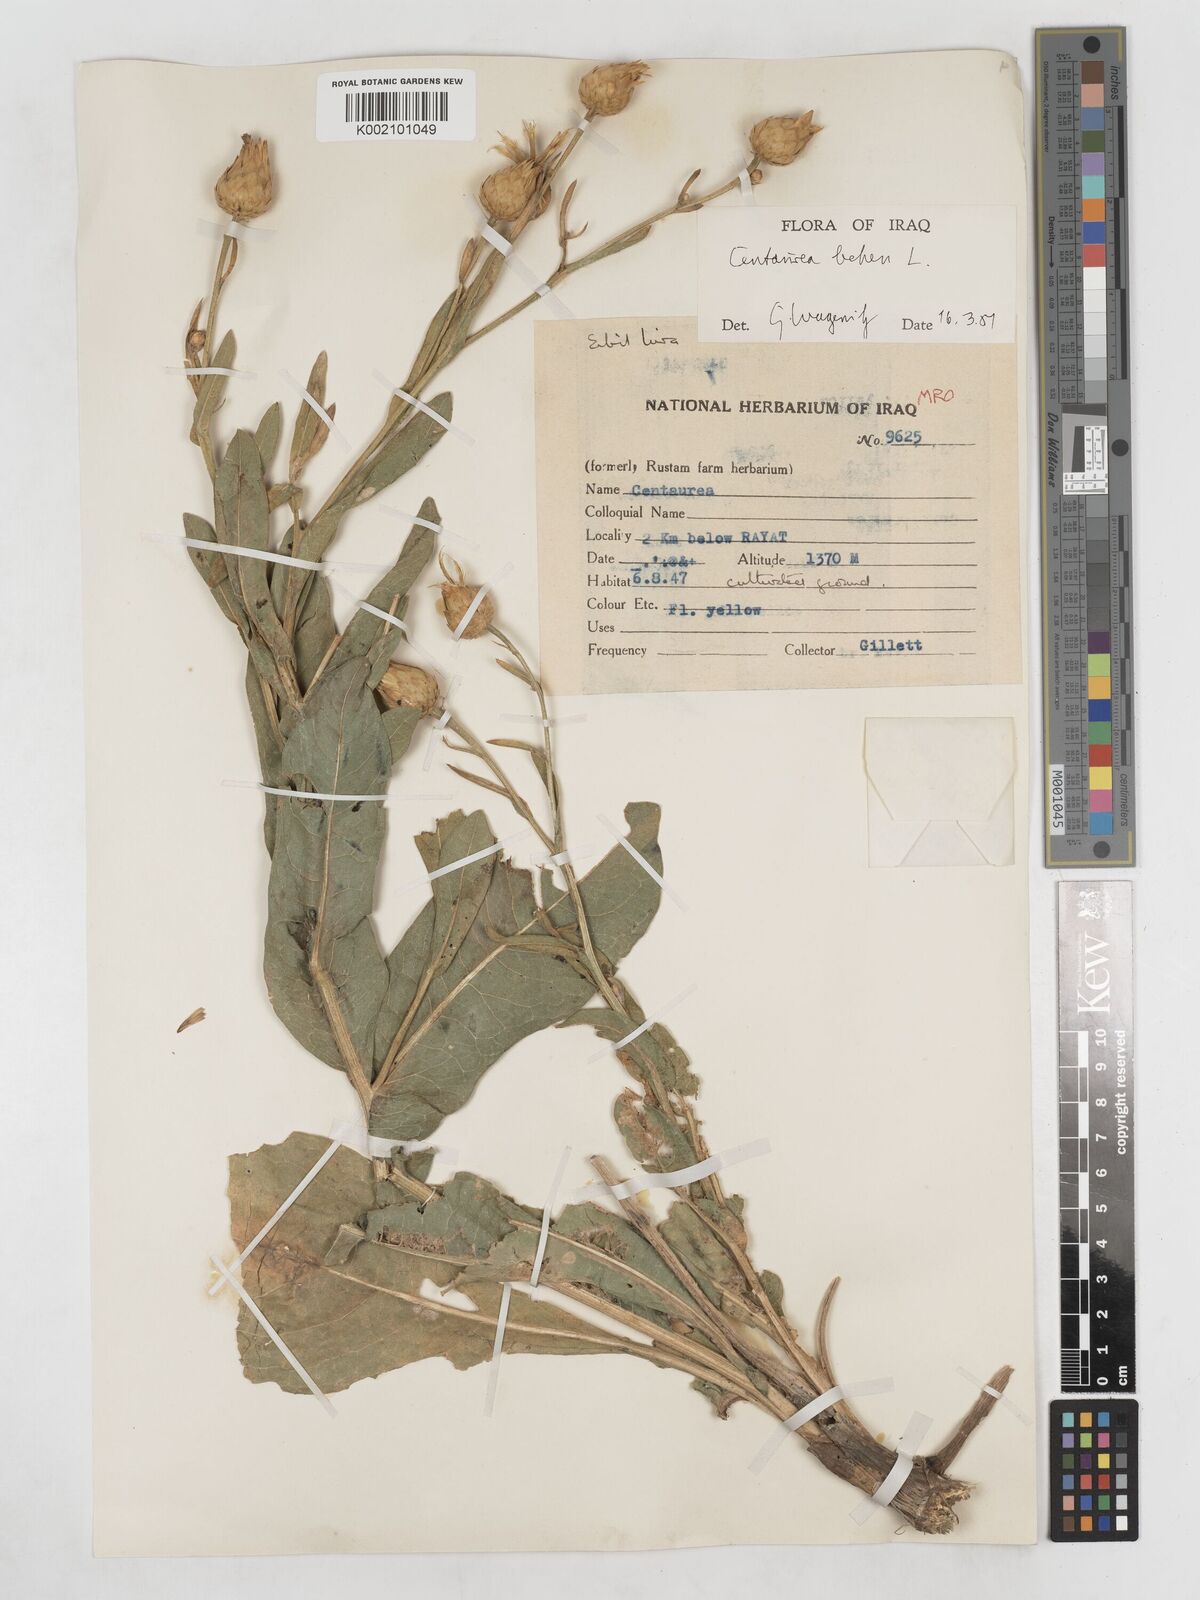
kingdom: Plantae
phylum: Tracheophyta
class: Magnoliopsida
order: Asterales
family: Asteraceae
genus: Centaurea
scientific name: Centaurea behen
